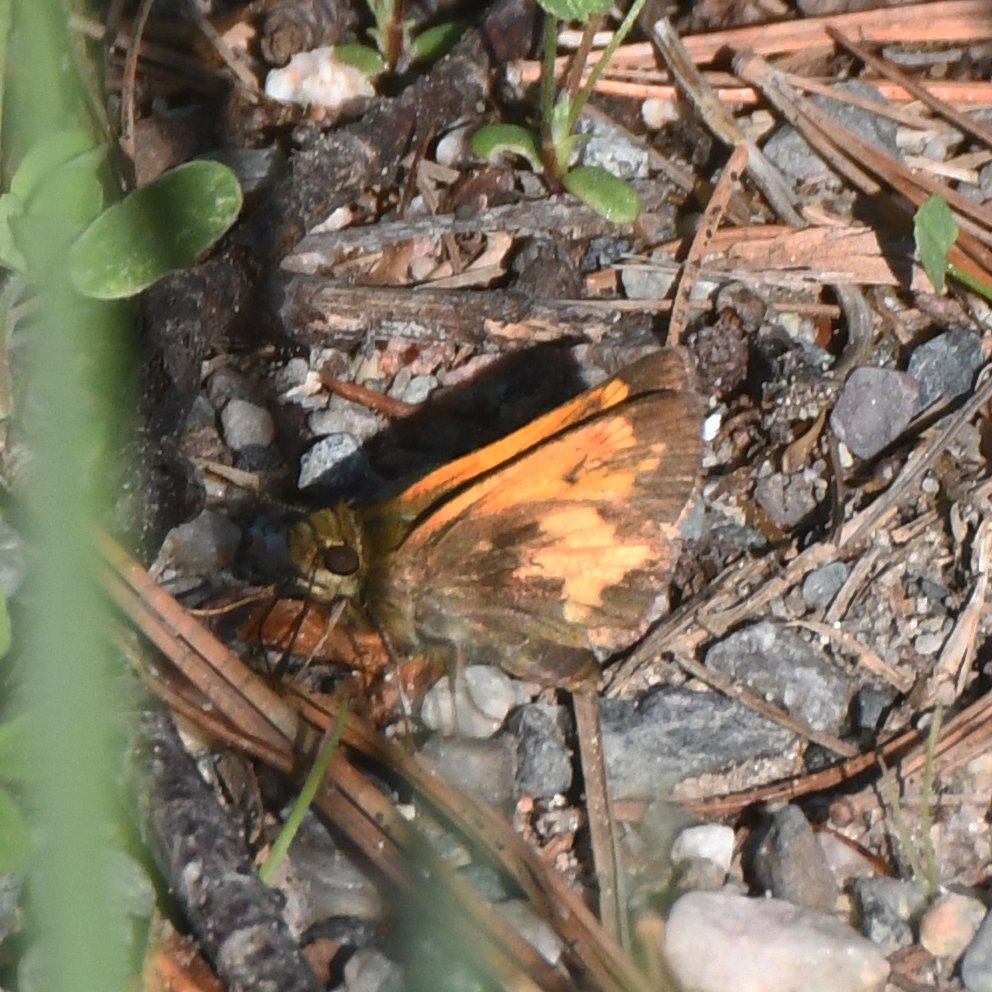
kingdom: Animalia
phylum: Arthropoda
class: Insecta
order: Lepidoptera
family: Hesperiidae
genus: Lon
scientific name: Lon hobomok
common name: Hobomok Skipper
